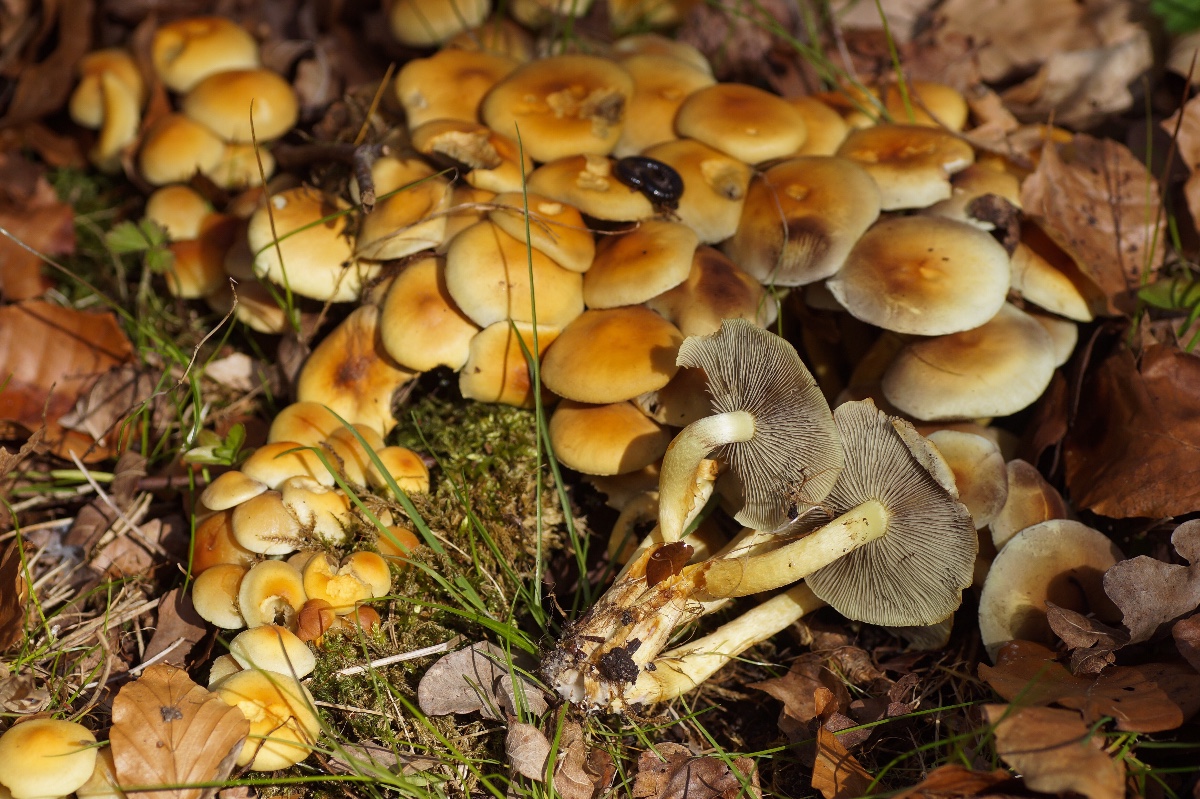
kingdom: Fungi
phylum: Basidiomycota
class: Agaricomycetes
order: Agaricales
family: Strophariaceae
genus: Hypholoma
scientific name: Hypholoma fasciculare
